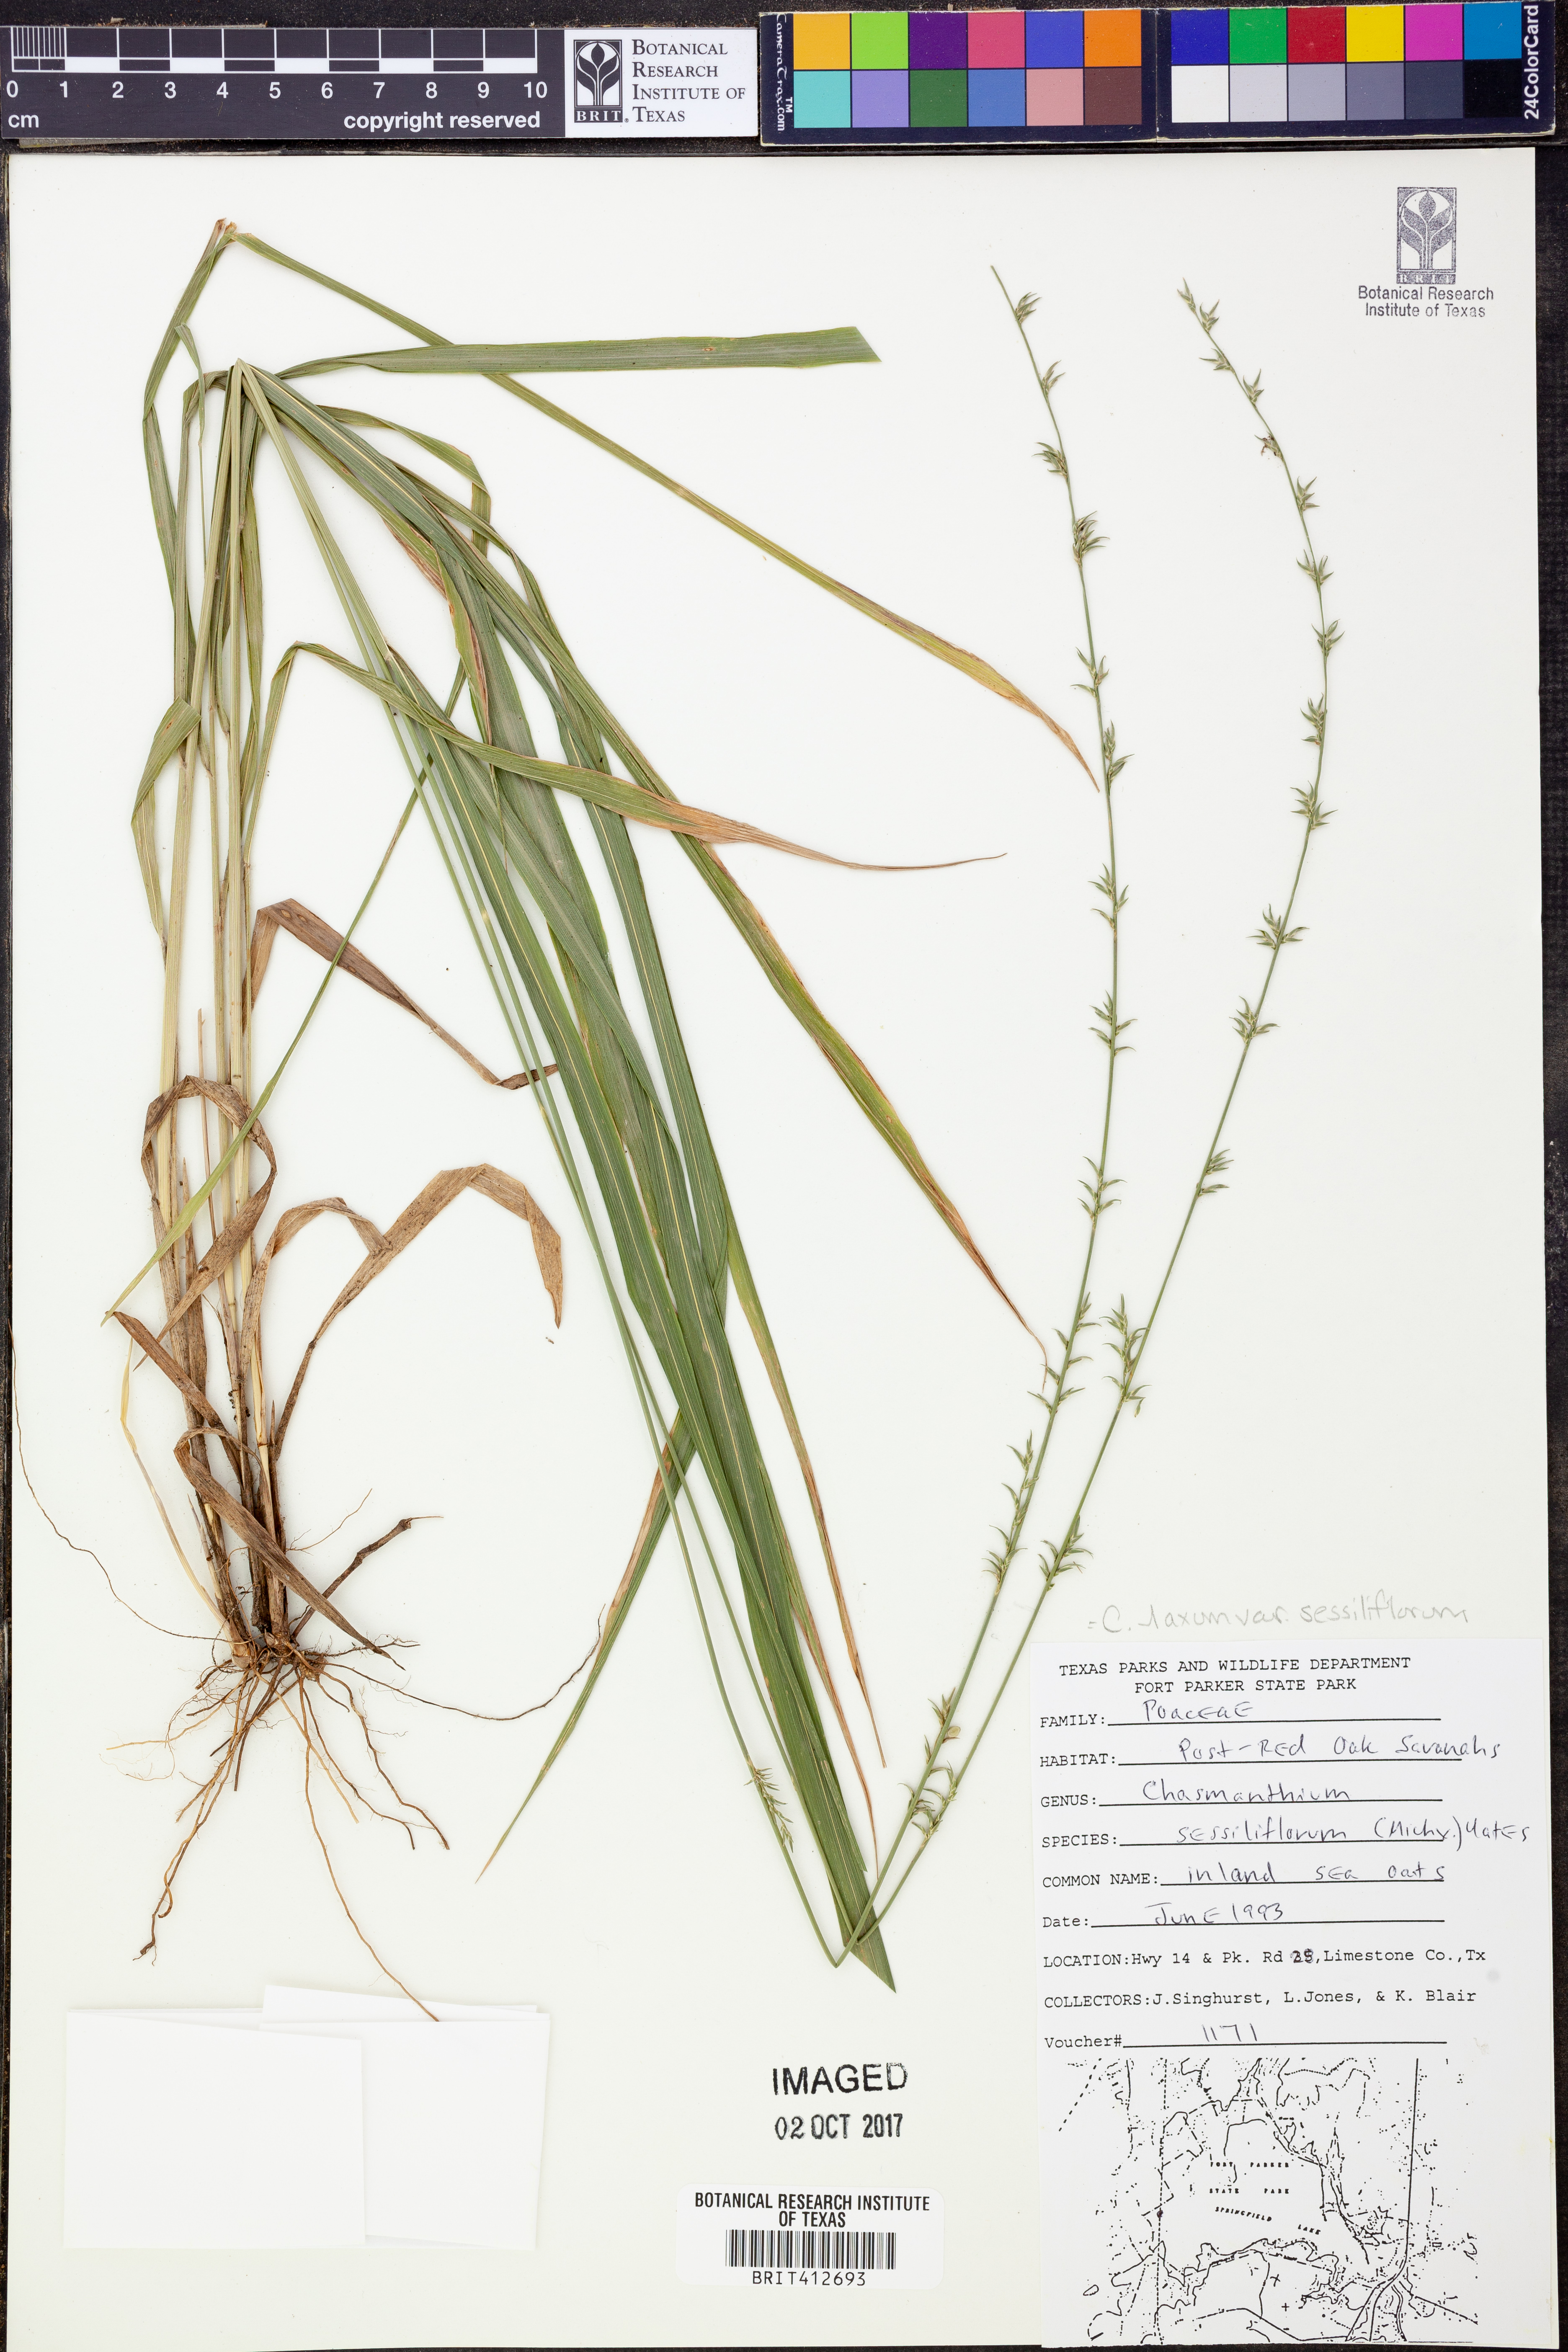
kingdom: Plantae
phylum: Tracheophyta
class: Liliopsida
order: Poales
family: Poaceae
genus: Chasmanthium
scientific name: Chasmanthium laxum
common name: Slender chasmanthium
